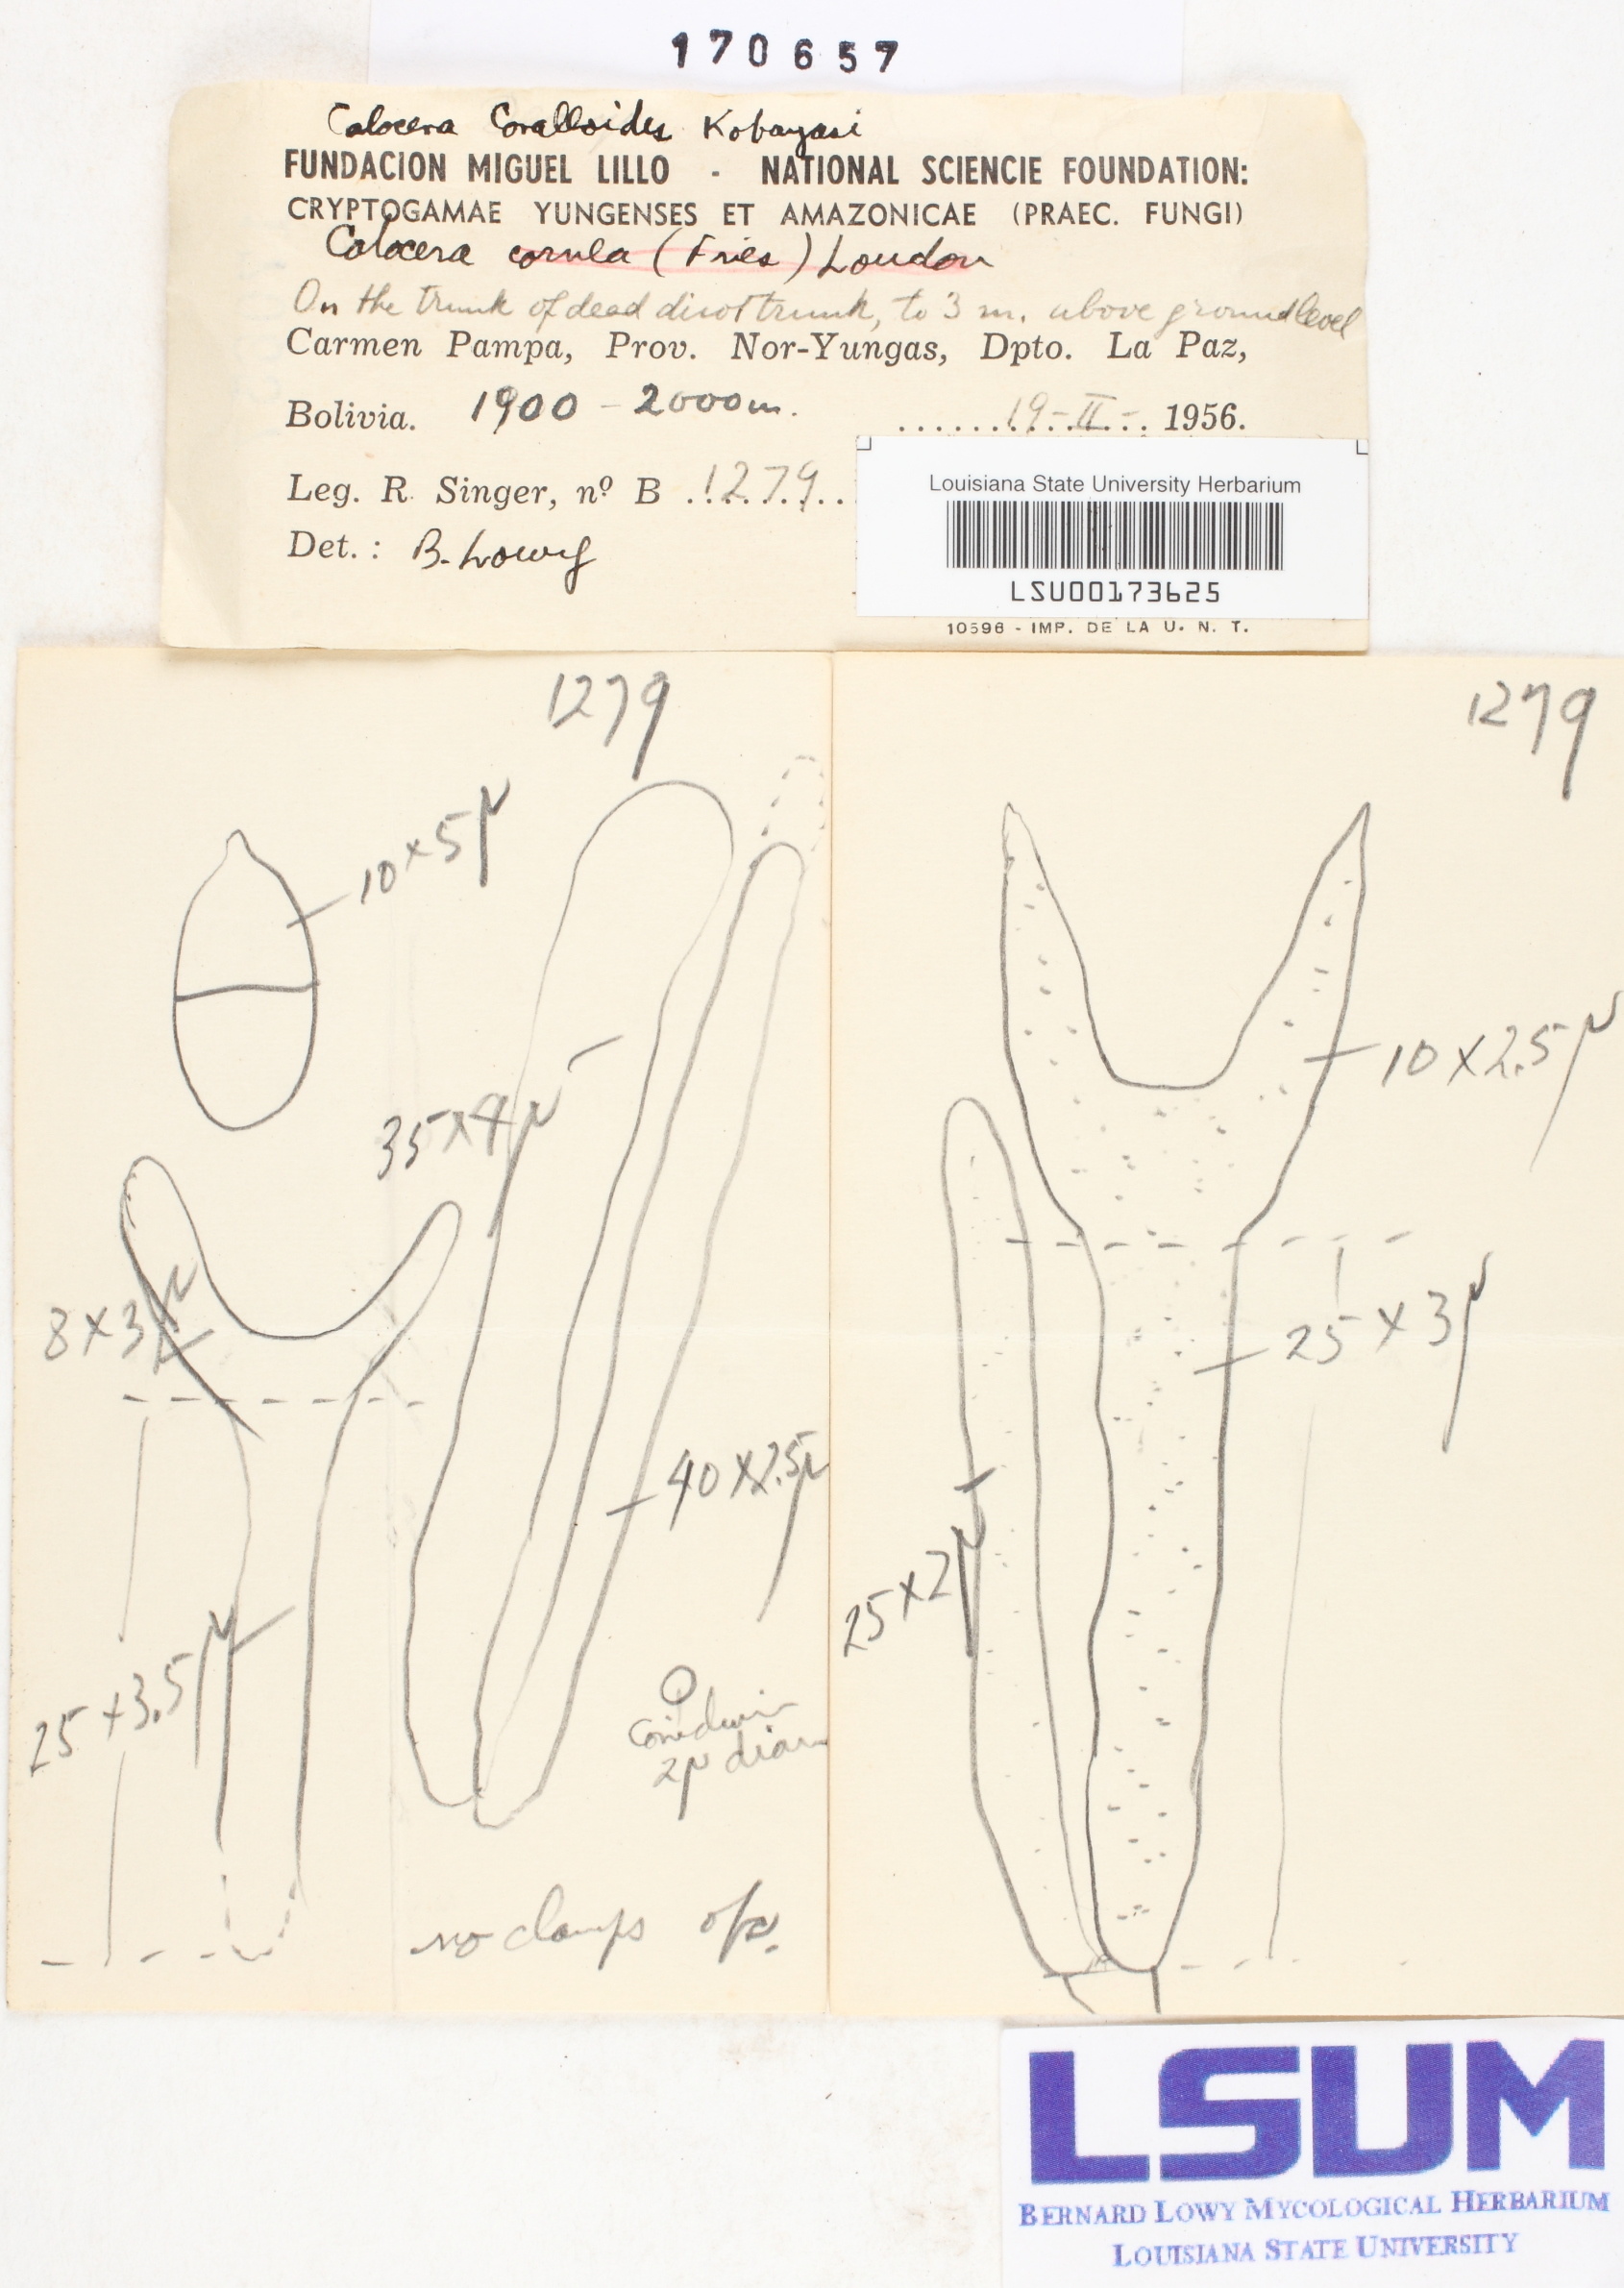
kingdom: Fungi
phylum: Basidiomycota
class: Dacrymycetes
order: Dacrymycetales
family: Dacrymycetaceae
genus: Calocera
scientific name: Calocera coralloides
